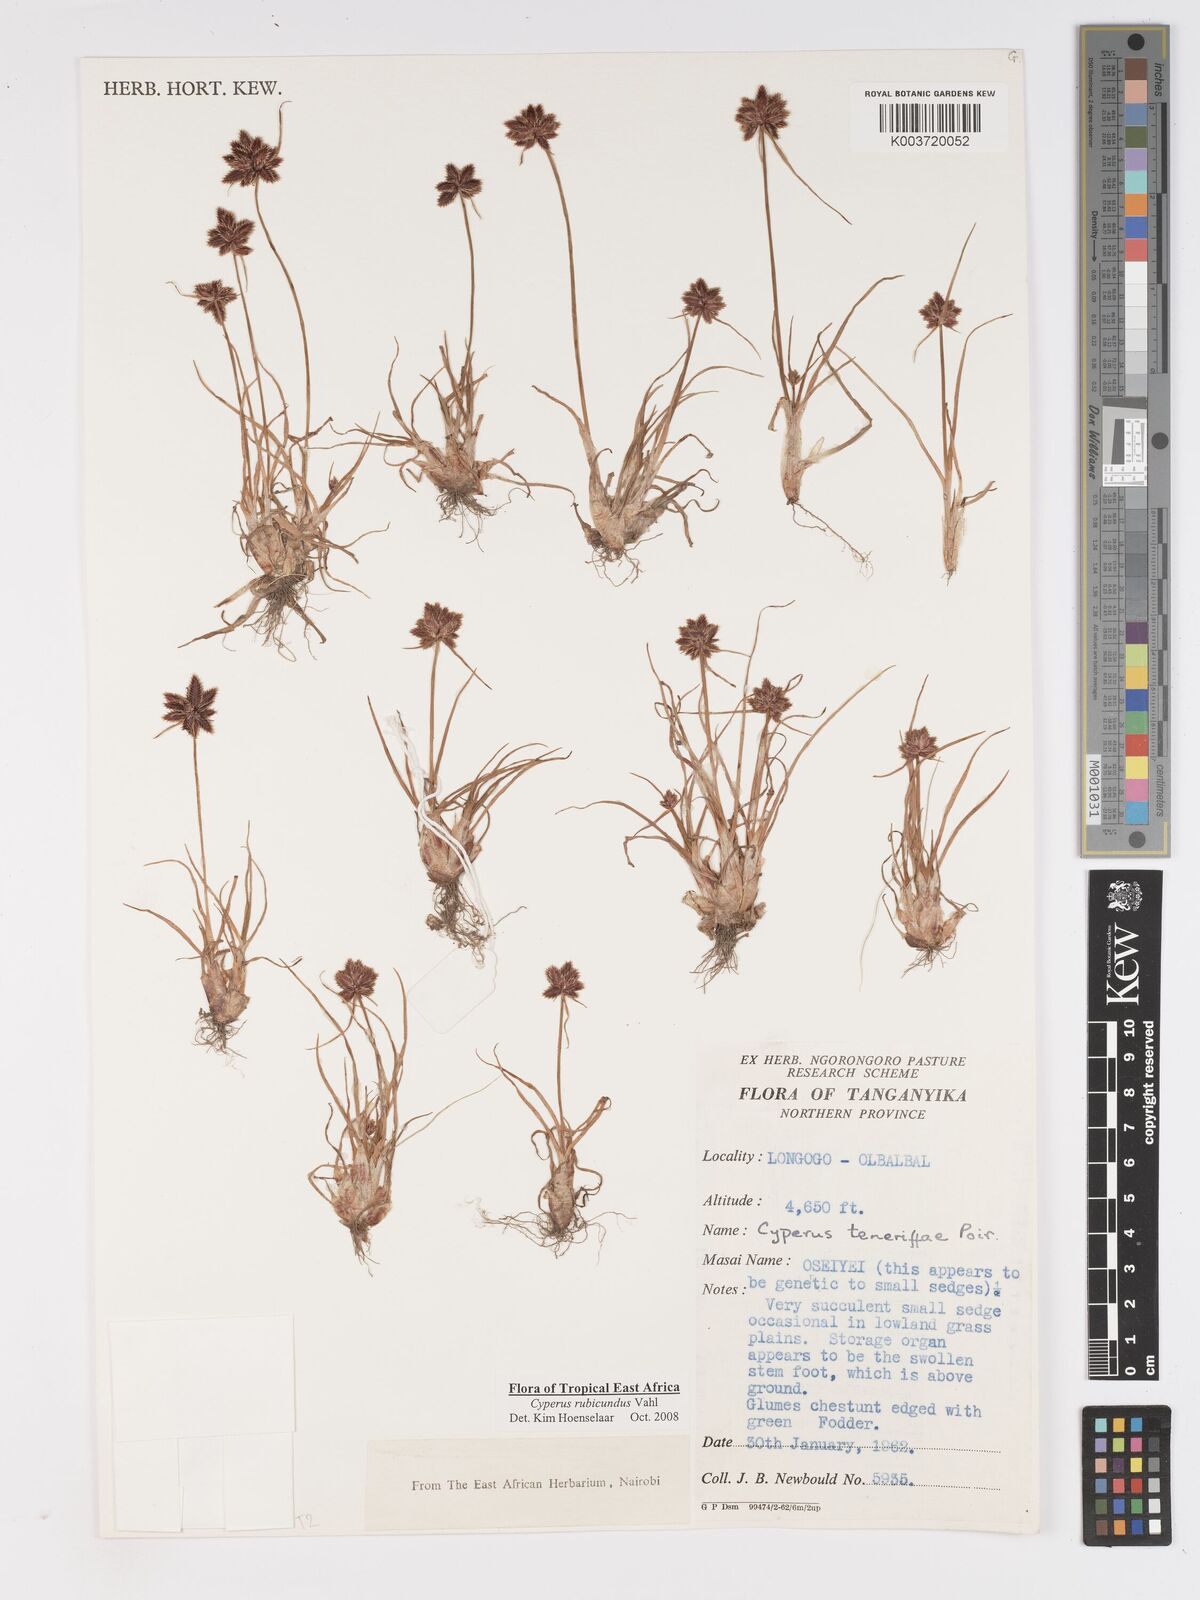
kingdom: Plantae
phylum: Tracheophyta
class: Liliopsida
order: Poales
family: Cyperaceae
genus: Cyperus
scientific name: Cyperus rubicundus
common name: Coco-grass
